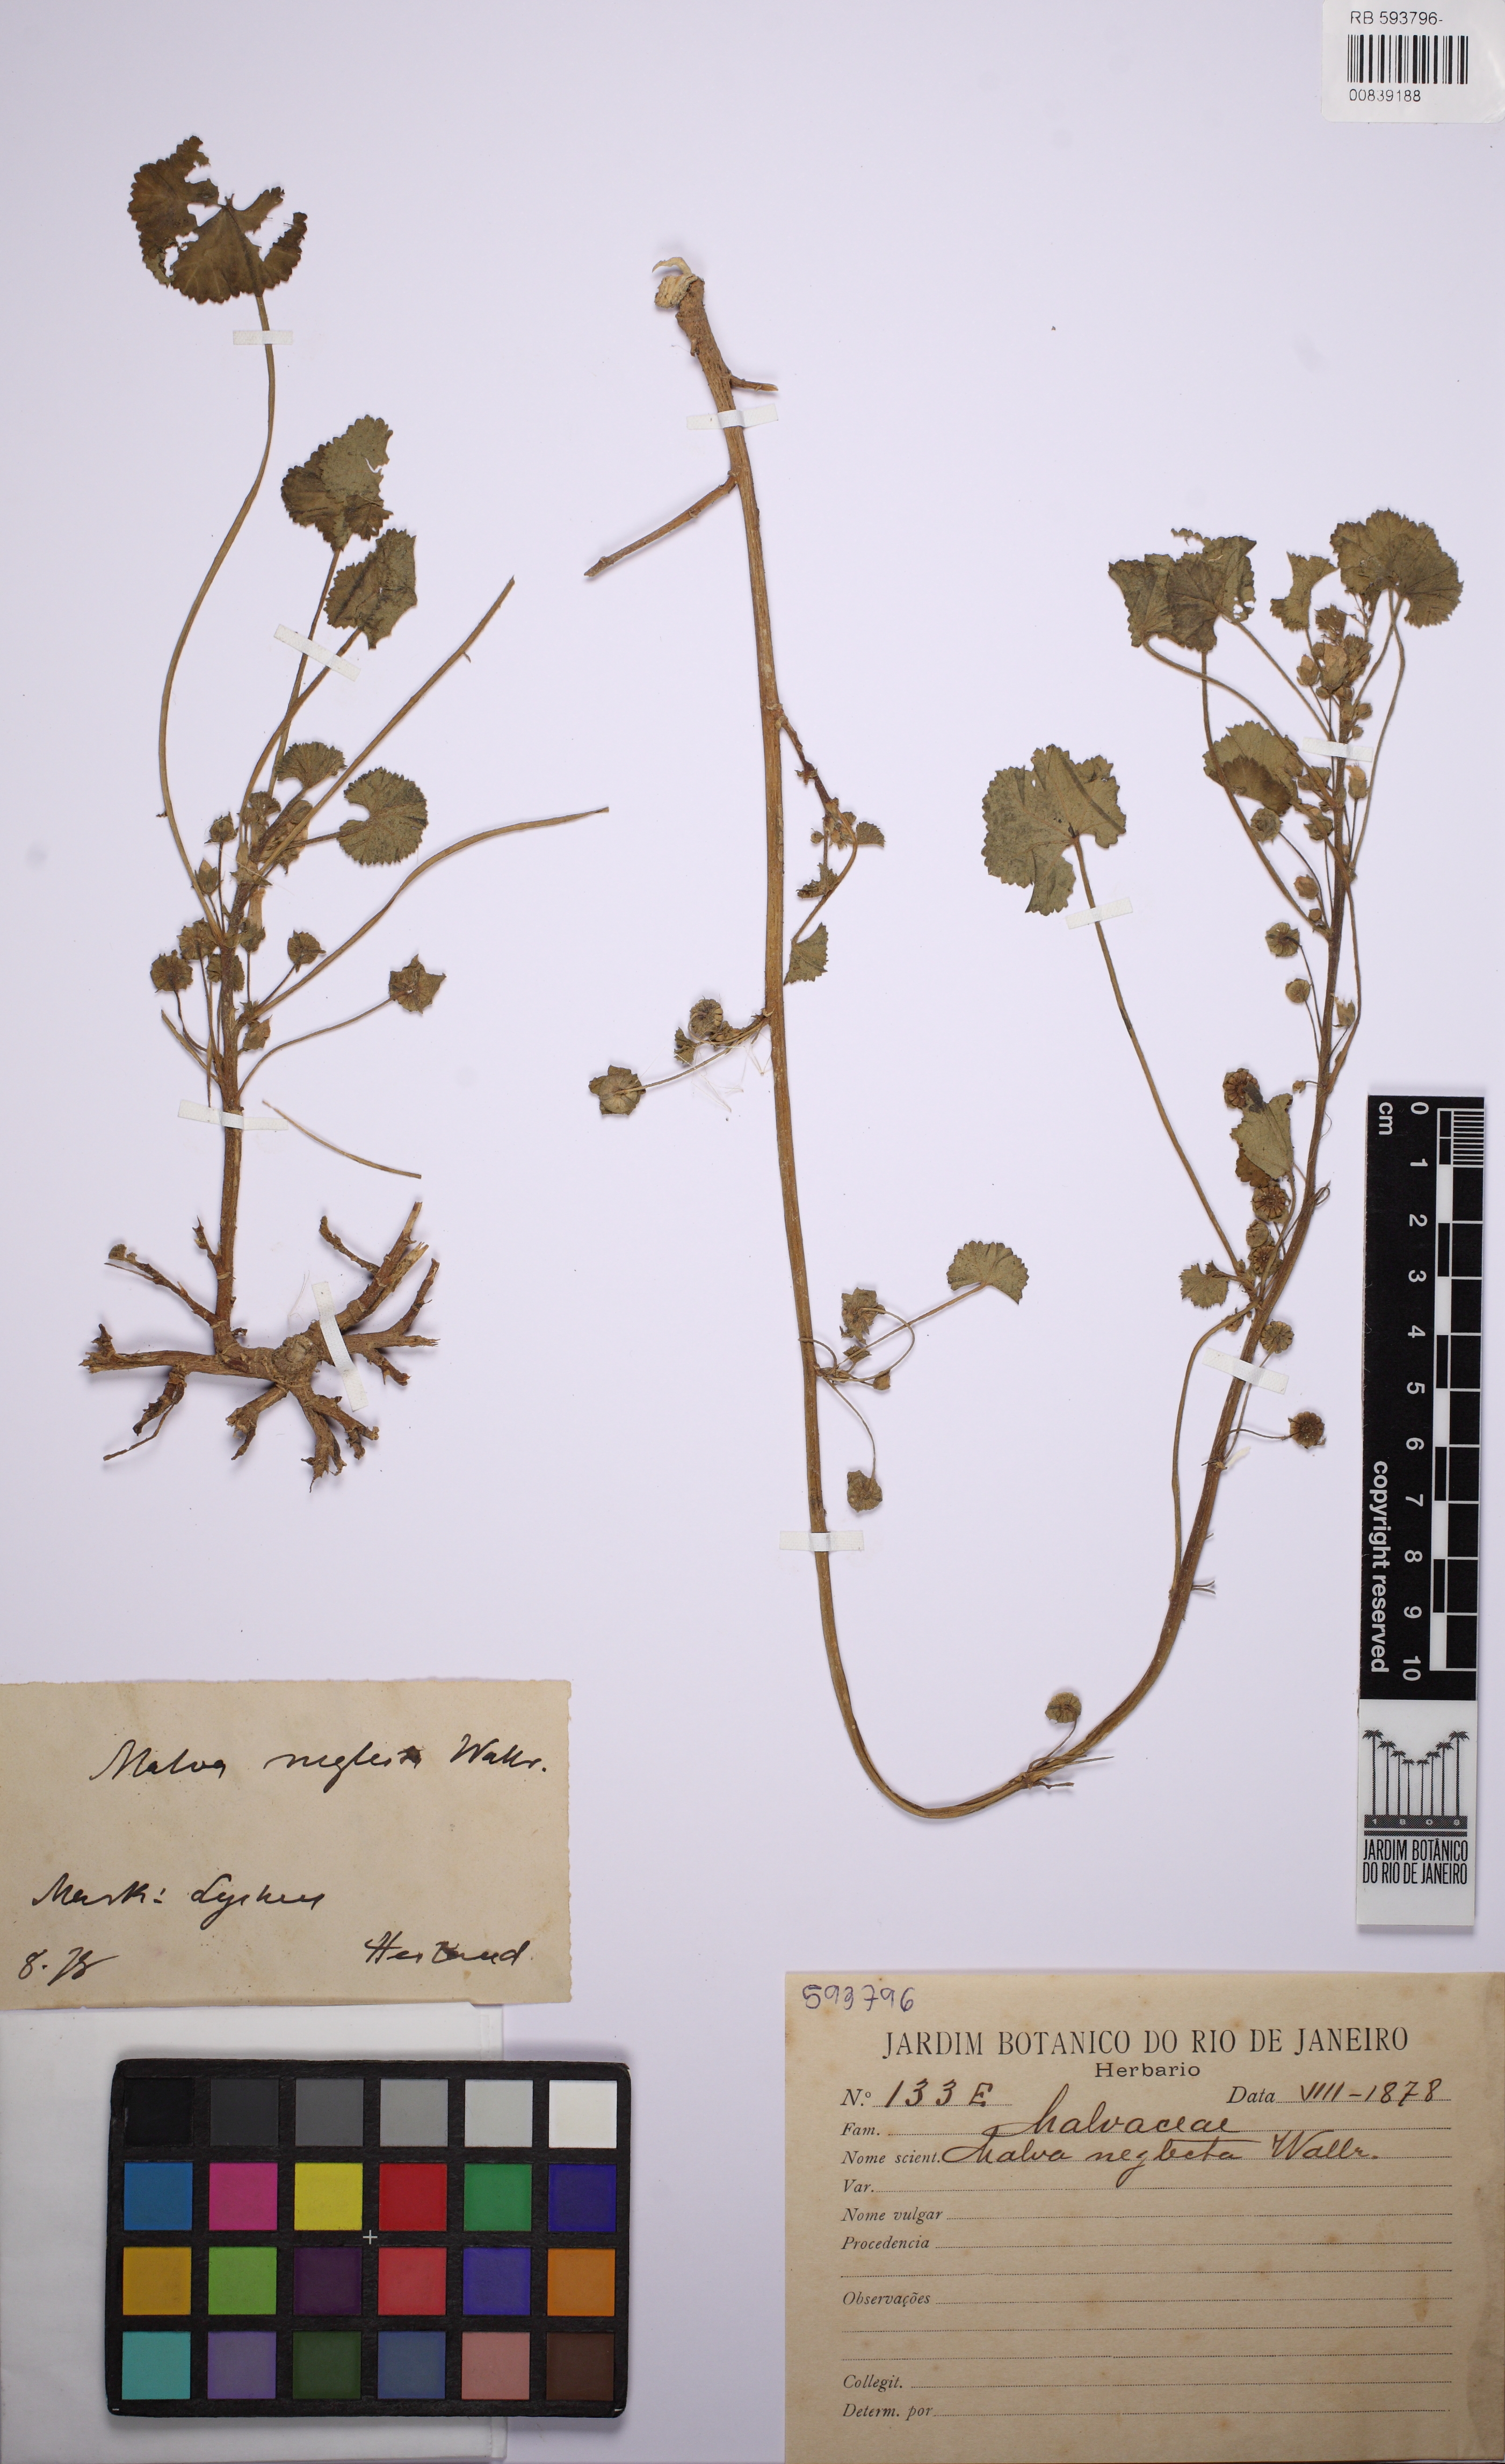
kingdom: Plantae
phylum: Tracheophyta
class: Magnoliopsida
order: Malvales
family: Malvaceae
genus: Malva
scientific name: Malva neglecta
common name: Common mallow
